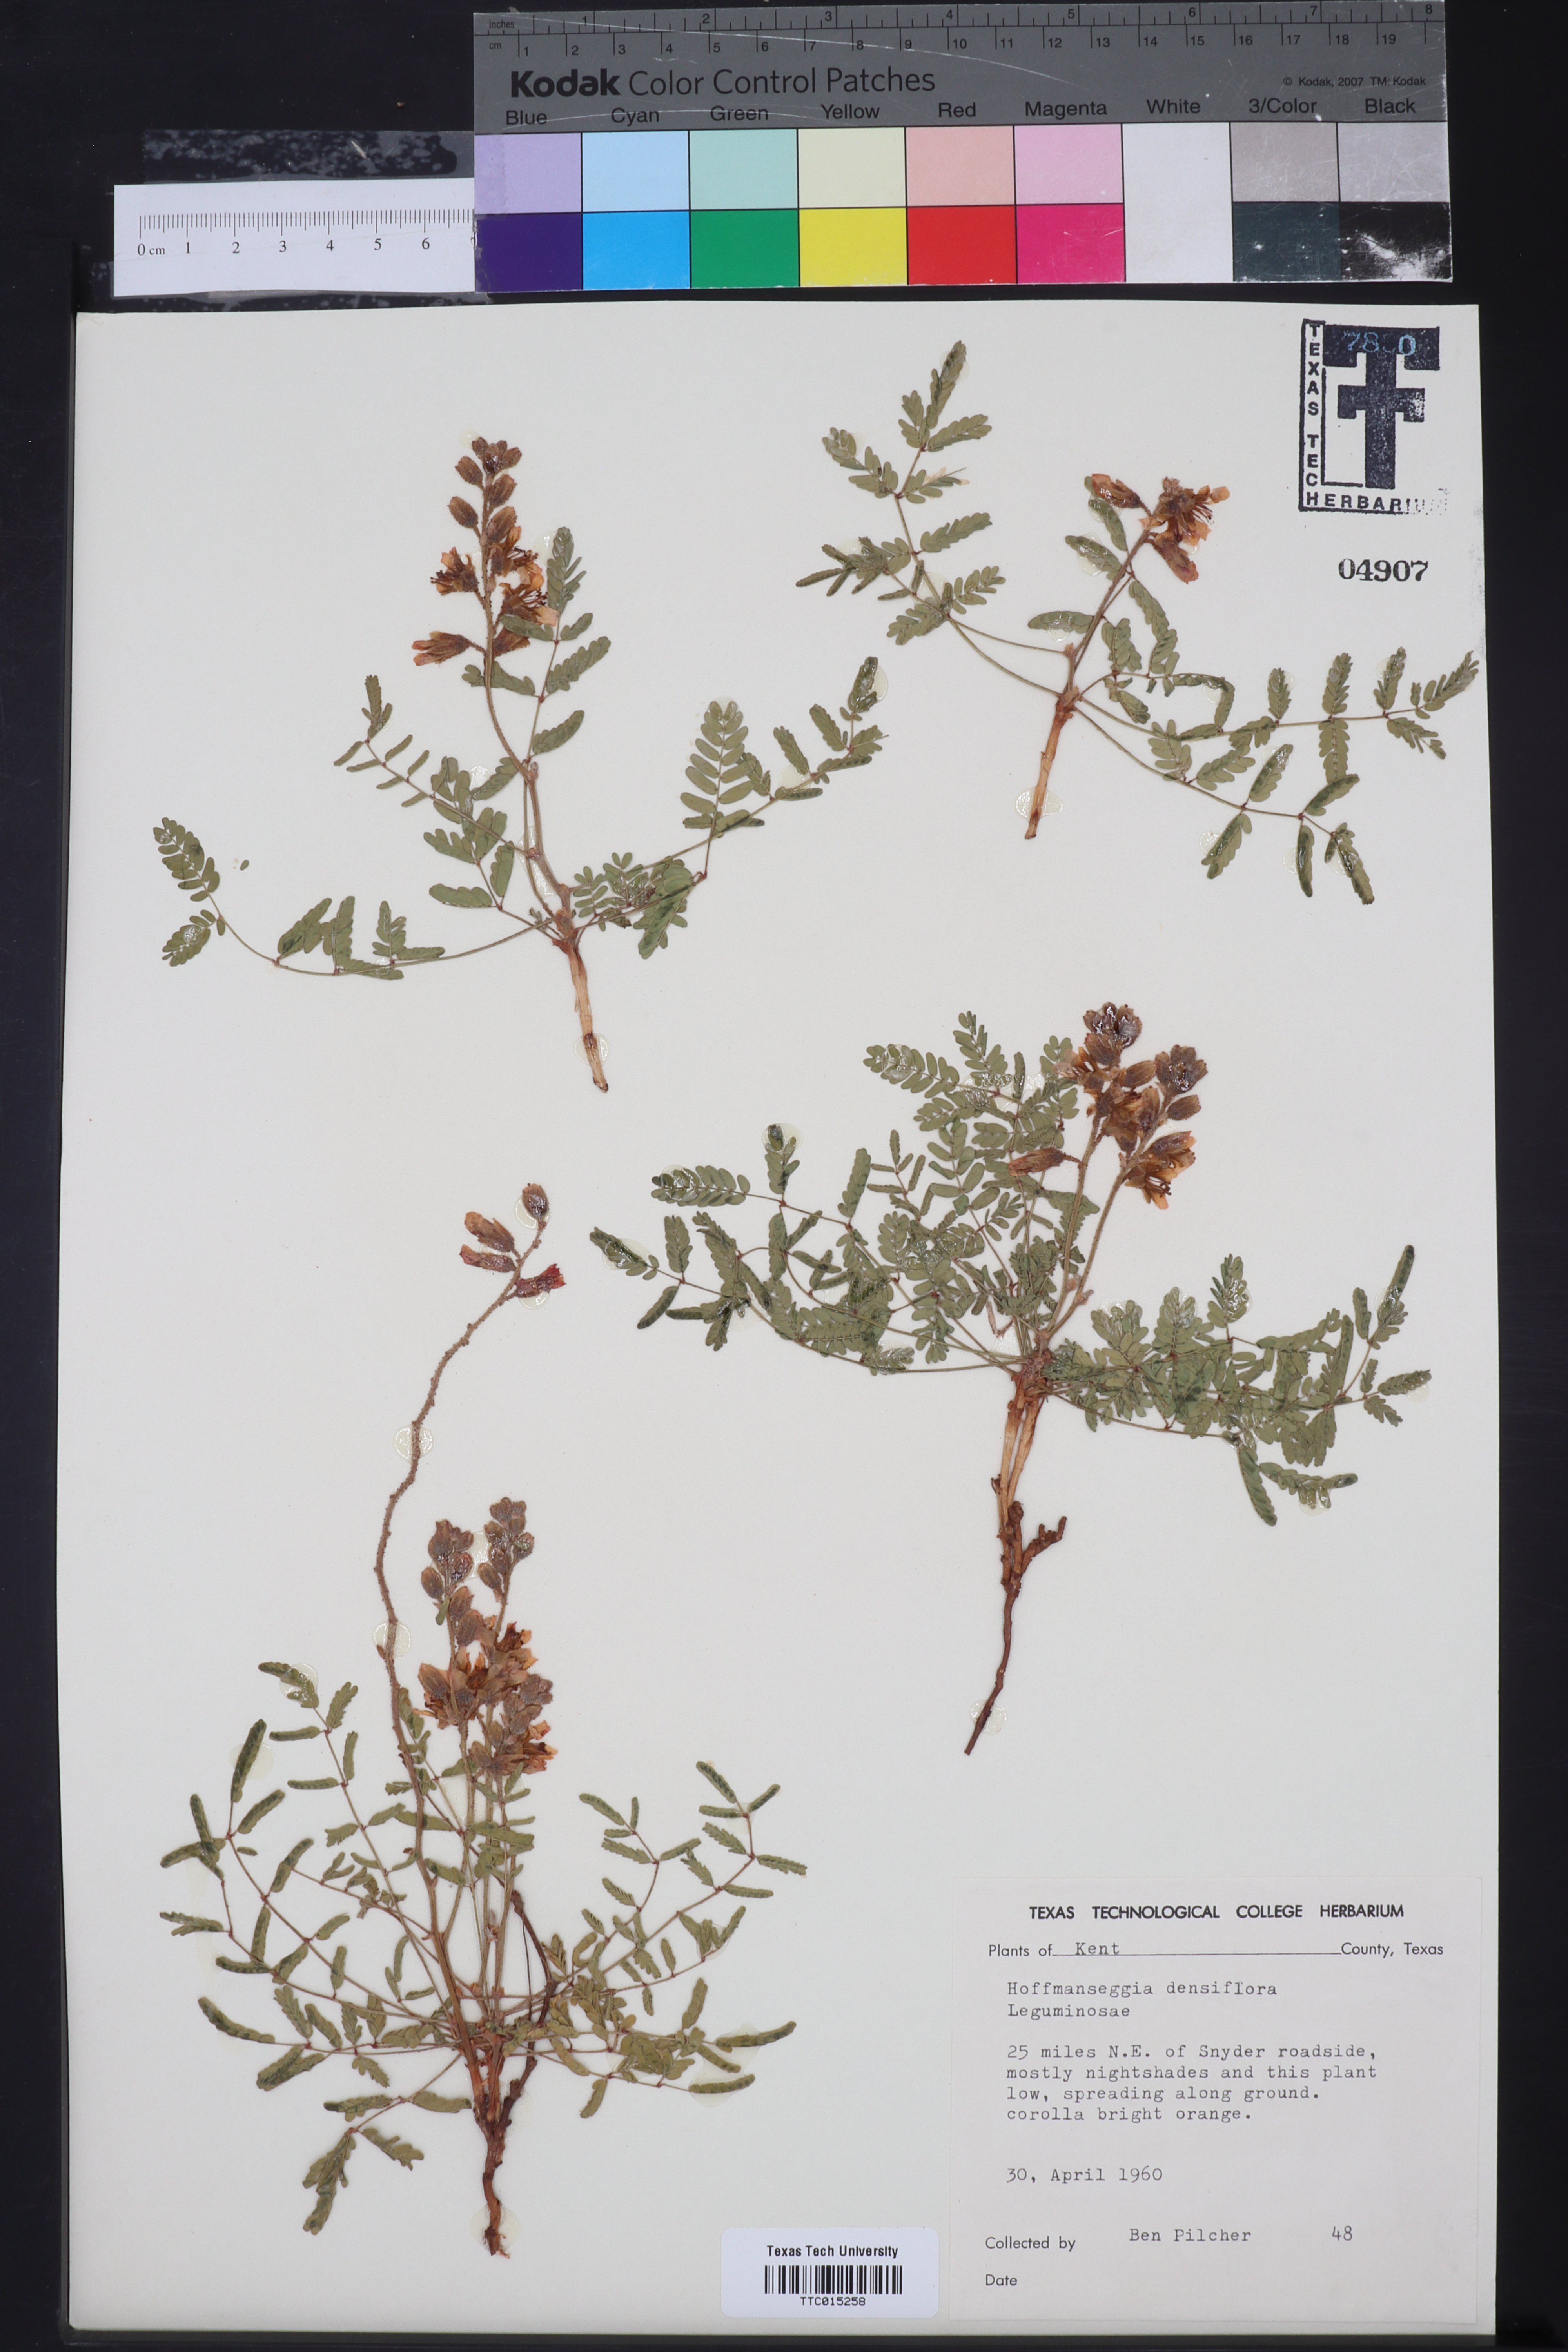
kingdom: Plantae
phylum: Tracheophyta
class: Magnoliopsida
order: Fabales
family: Fabaceae
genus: Hoffmannseggia
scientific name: Hoffmannseggia glauca
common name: Pignut
